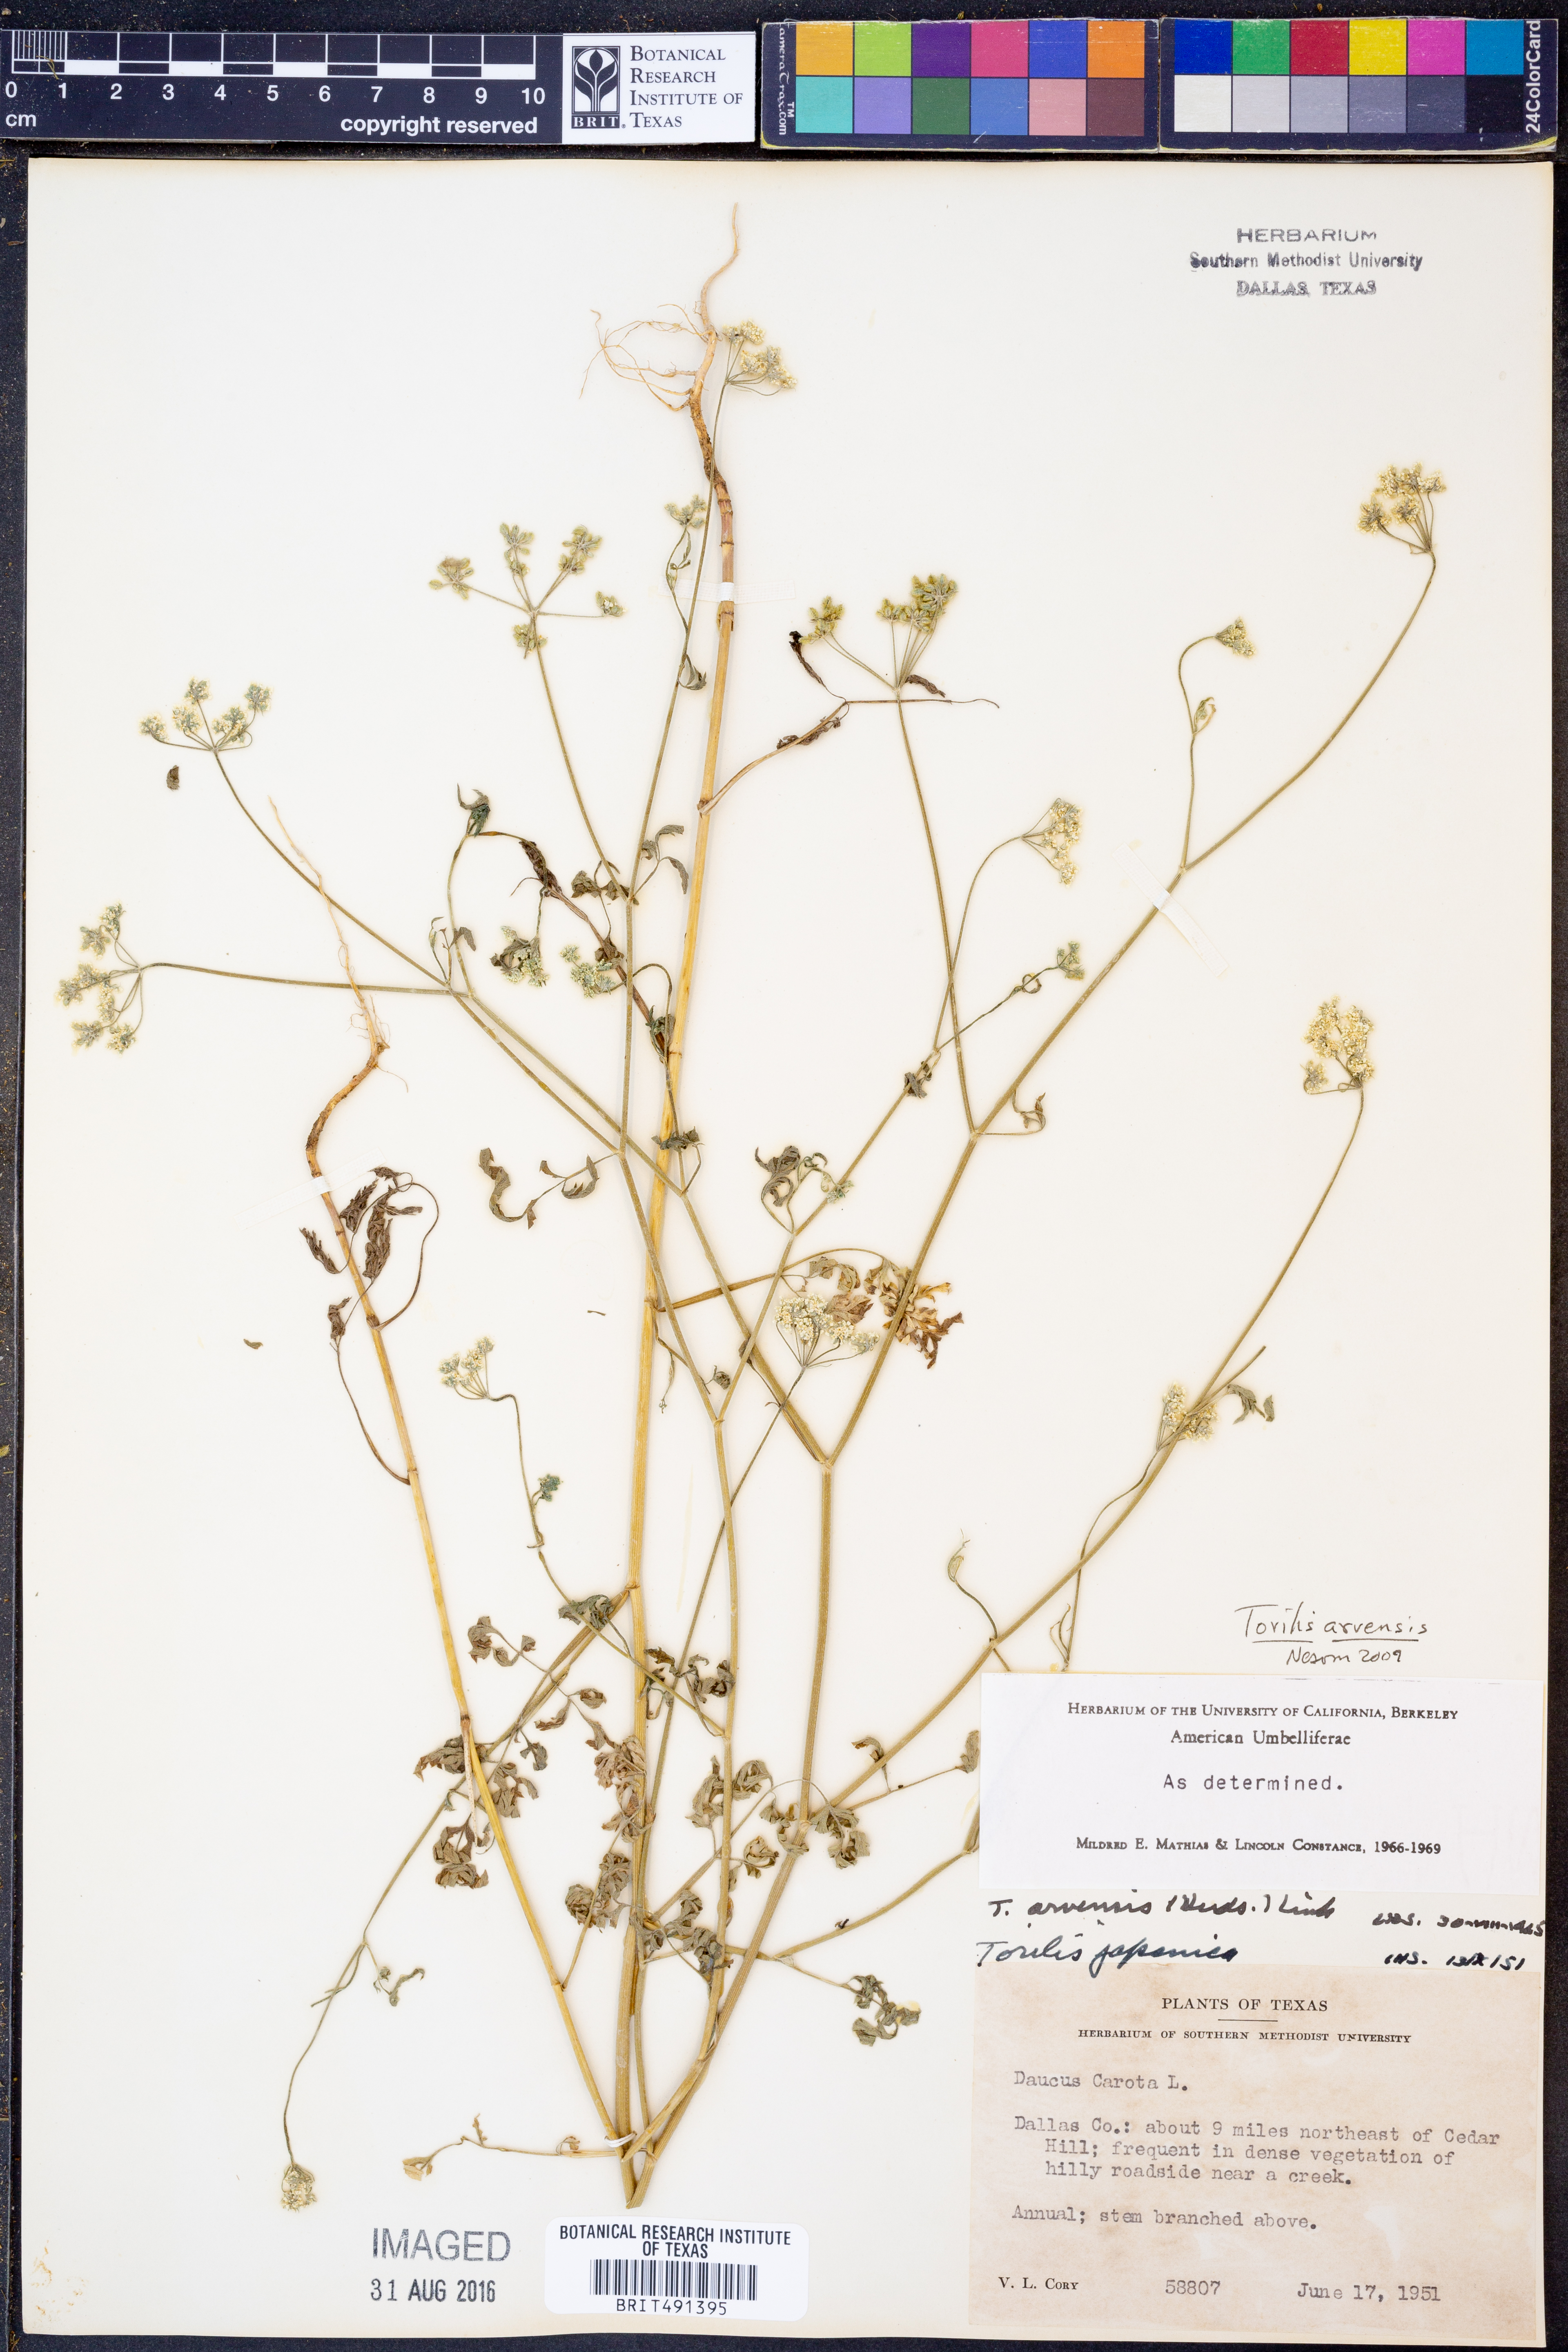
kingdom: Plantae
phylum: Tracheophyta
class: Magnoliopsida
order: Apiales
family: Apiaceae
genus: Torilis
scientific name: Torilis arvensis
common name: Spreading hedge-parsley
